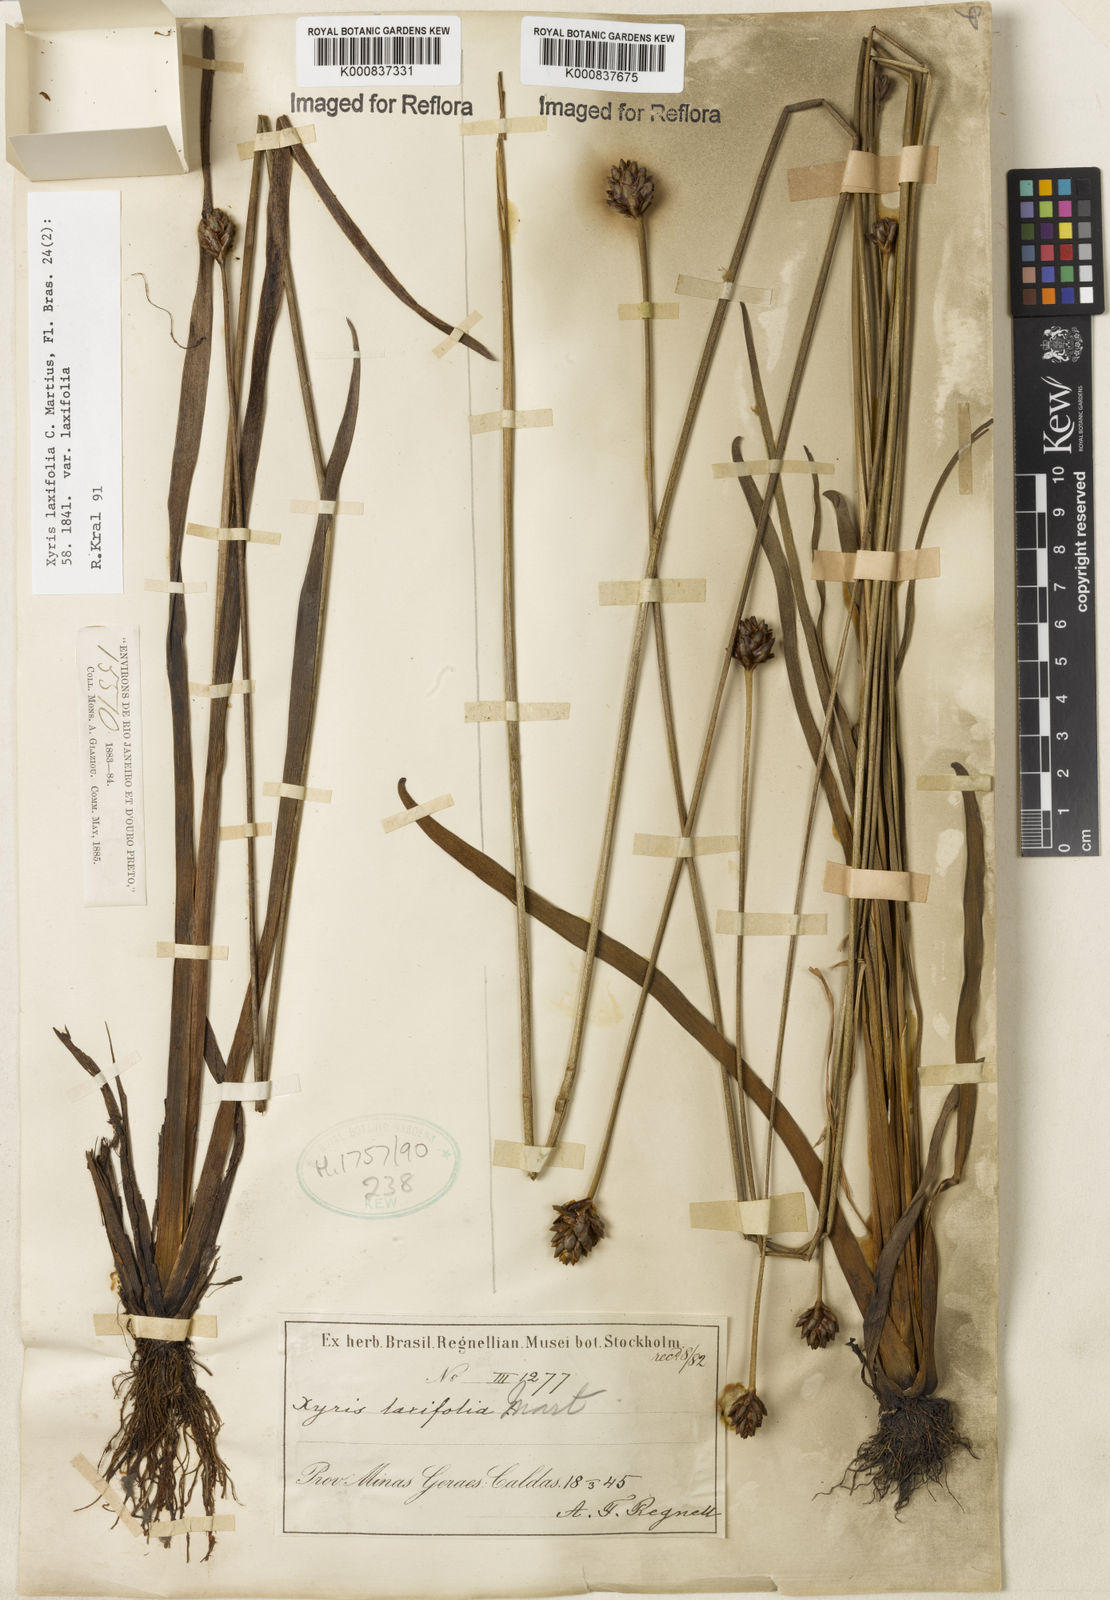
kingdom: Plantae
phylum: Tracheophyta
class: Liliopsida
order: Poales
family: Xyridaceae
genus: Xyris
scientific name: Xyris laxifolia
